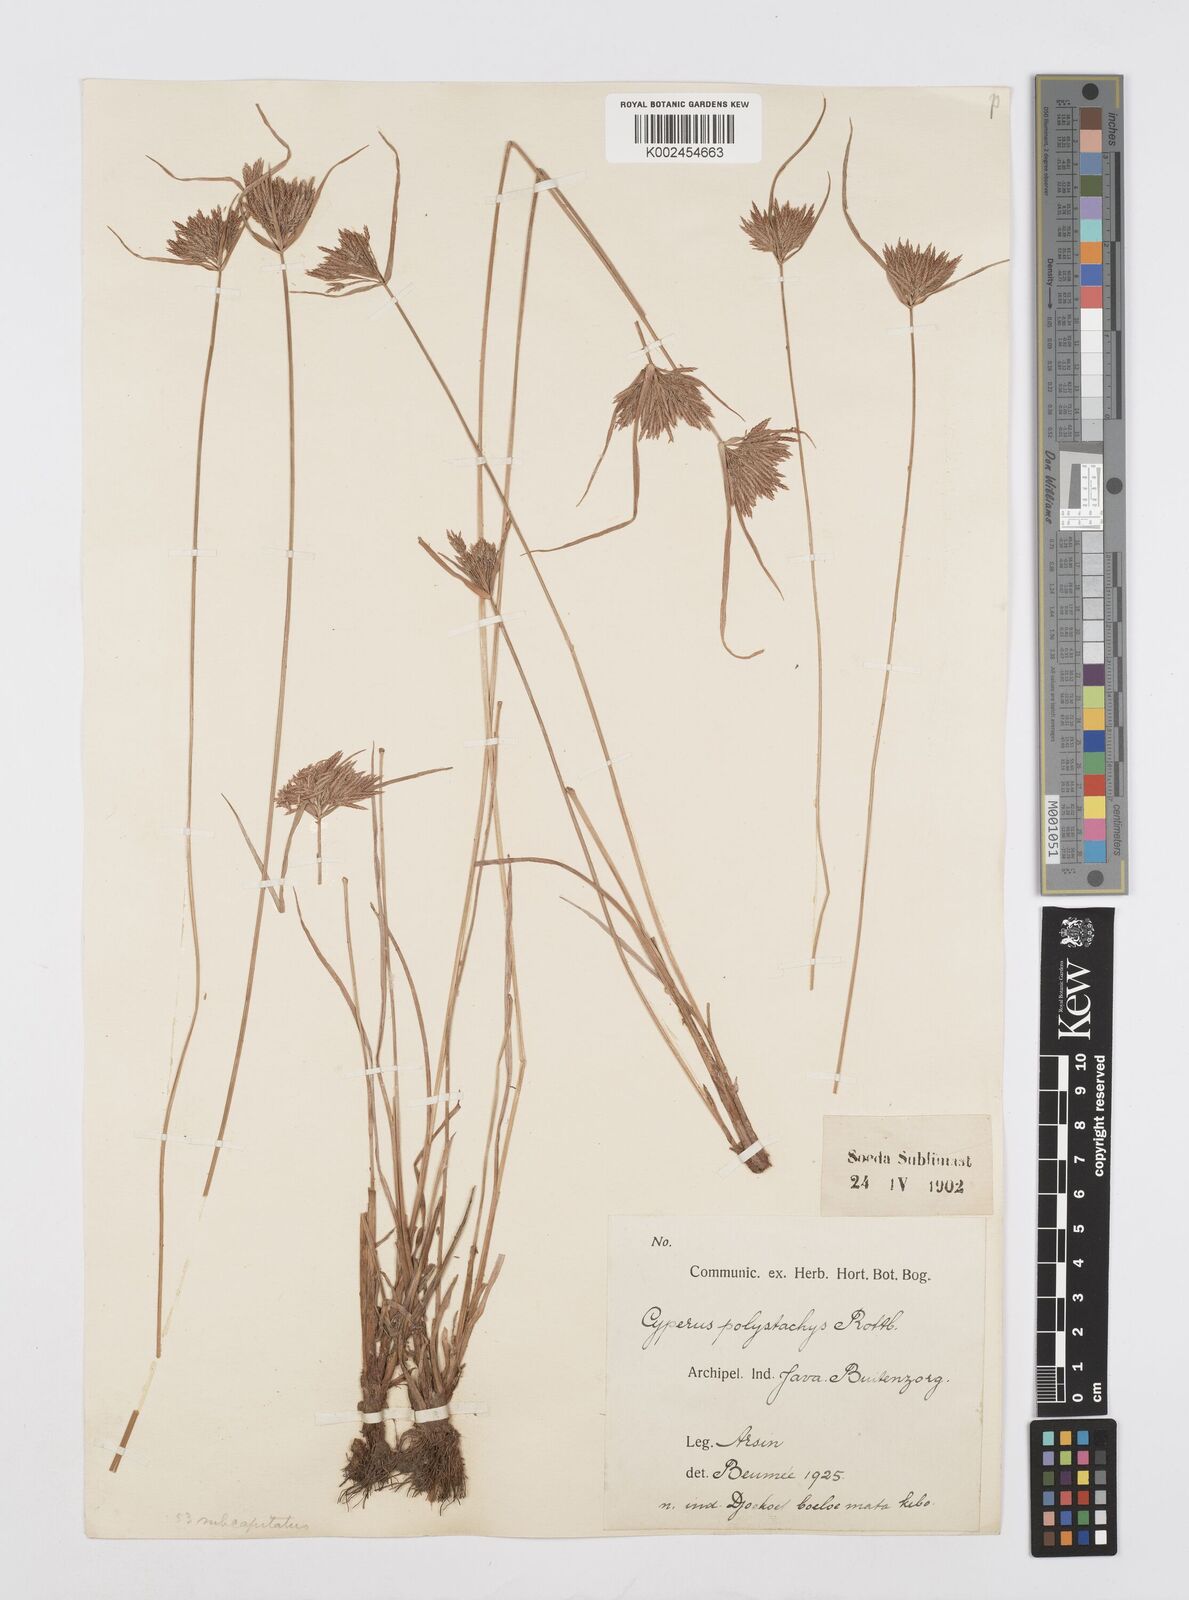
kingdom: Plantae
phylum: Tracheophyta
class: Liliopsida
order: Poales
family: Cyperaceae
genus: Cyperus
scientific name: Cyperus polystachyos
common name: Bunchy flat sedge
